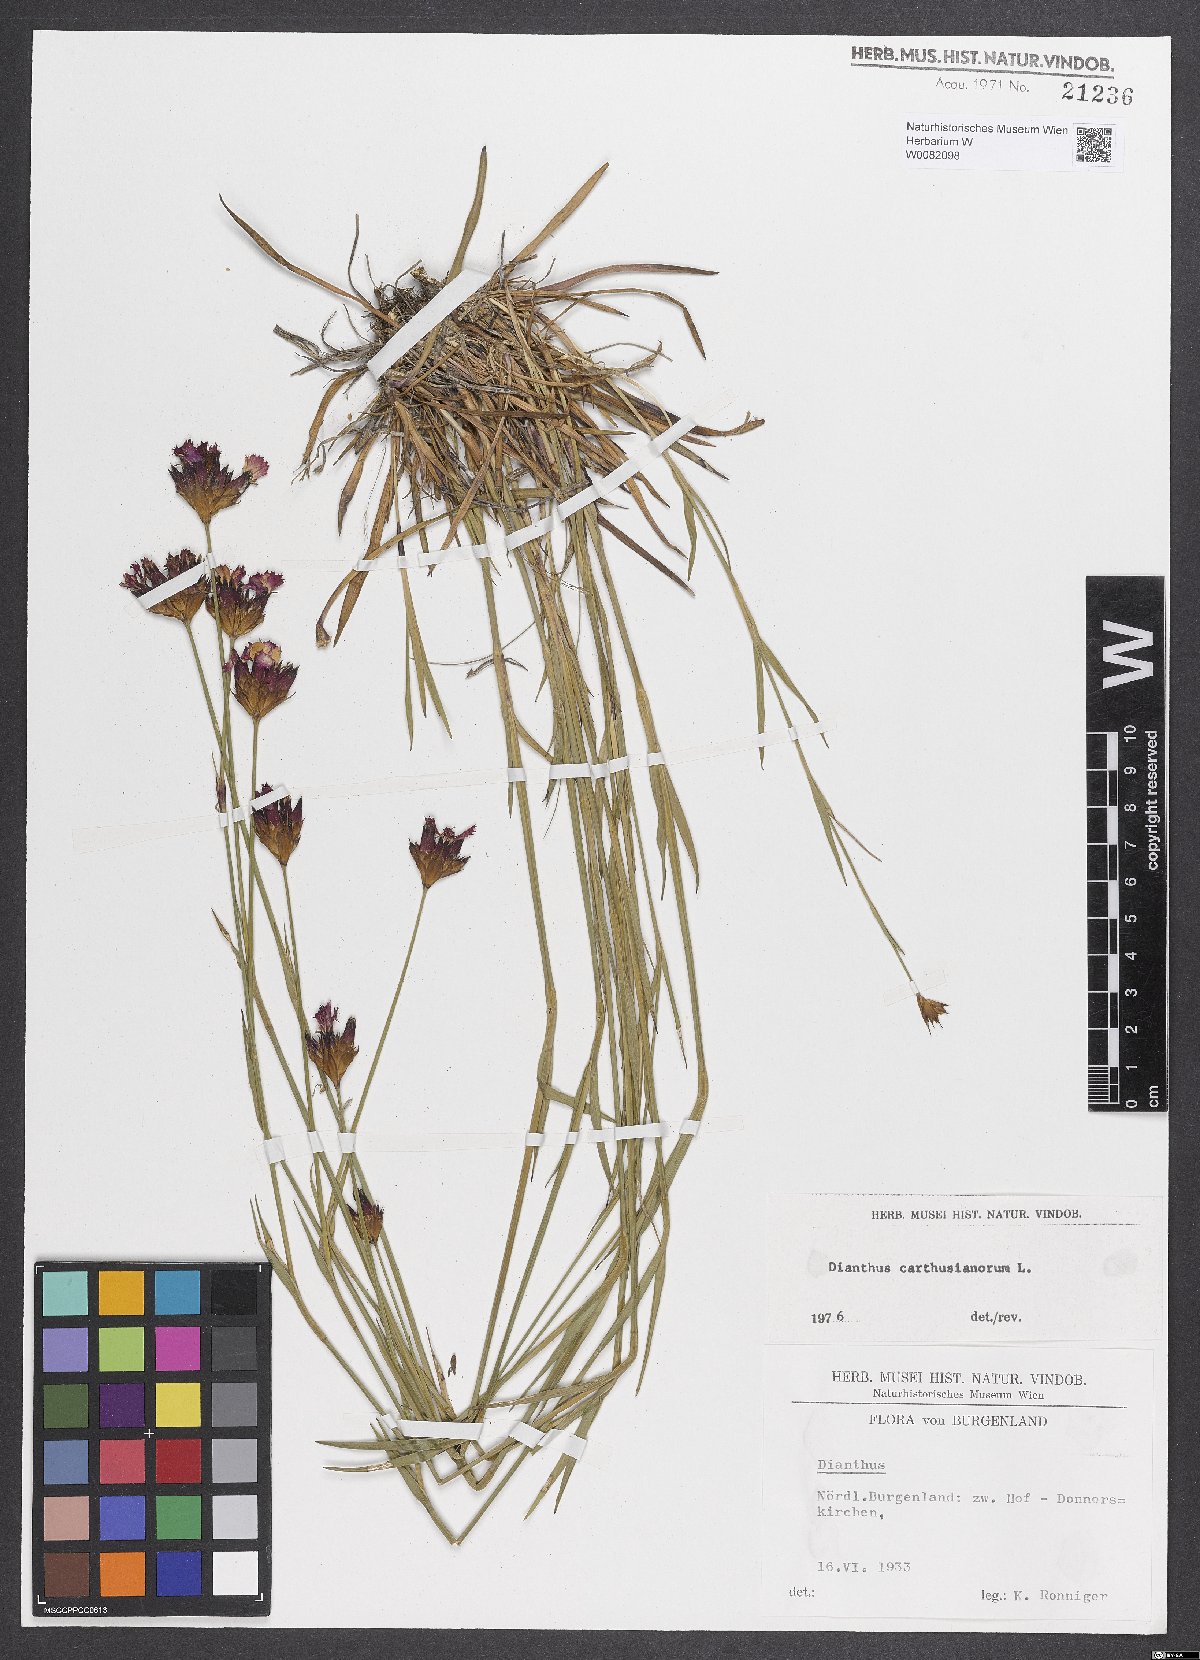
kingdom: Plantae
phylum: Tracheophyta
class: Magnoliopsida
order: Caryophyllales
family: Caryophyllaceae
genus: Dianthus
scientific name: Dianthus carthusianorum
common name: Carthusian pink
